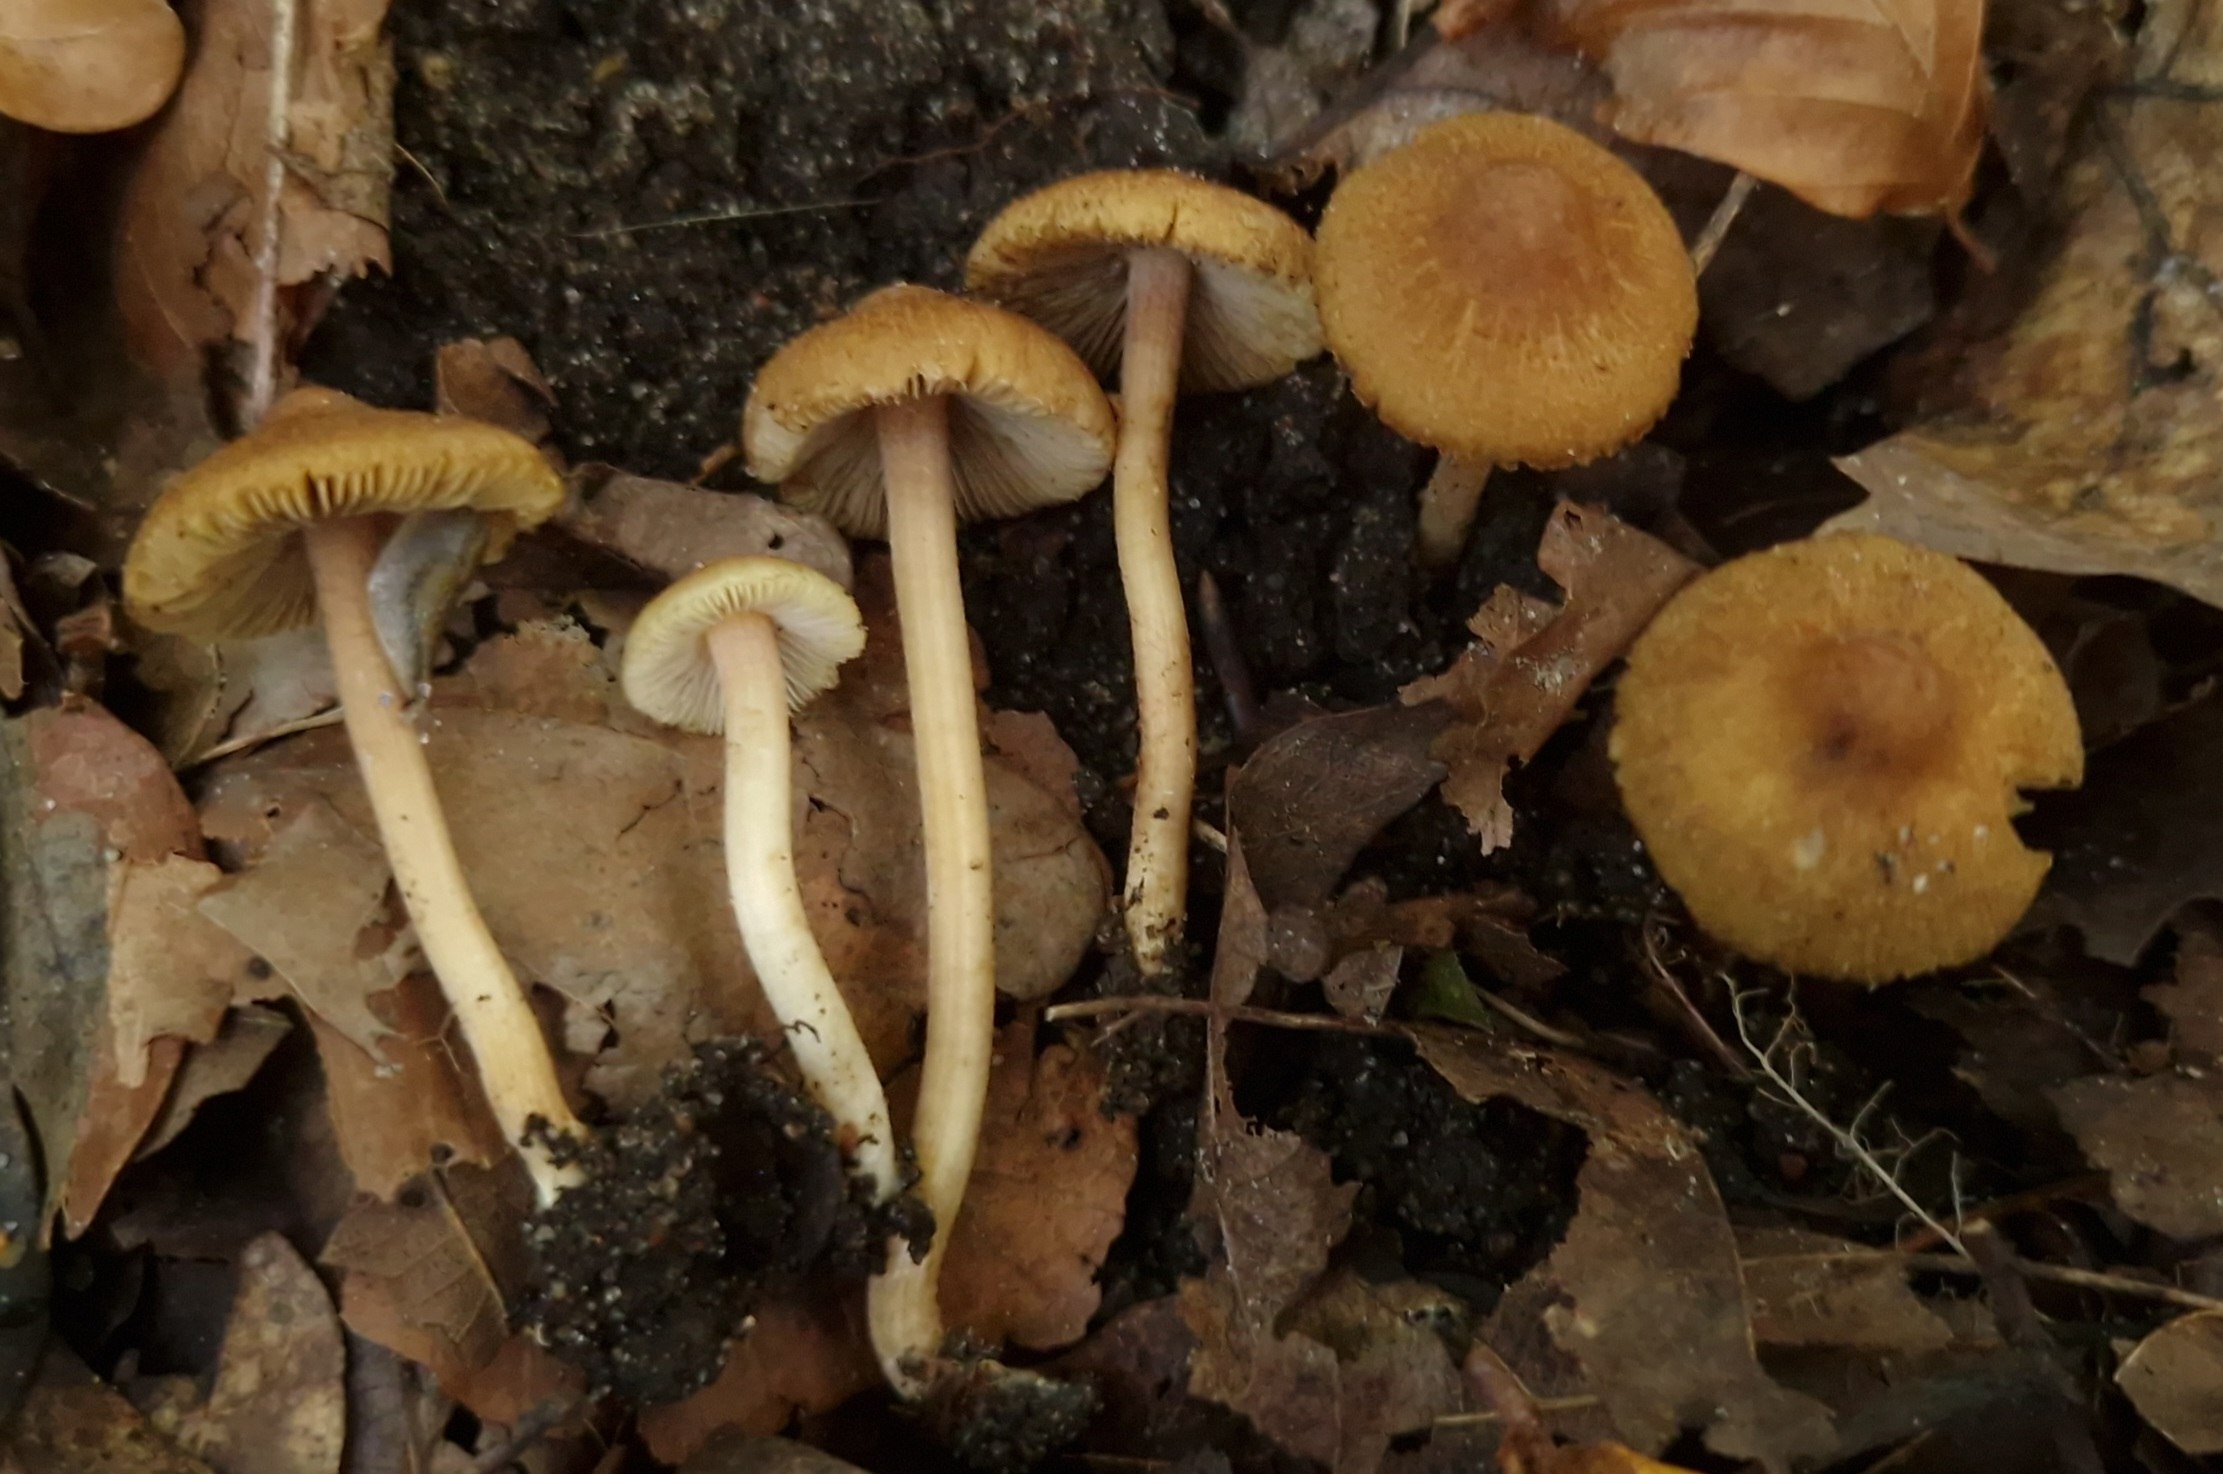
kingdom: Fungi
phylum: Basidiomycota
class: Agaricomycetes
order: Agaricales
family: Inocybaceae
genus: Inocybe
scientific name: Inocybe hirtella
